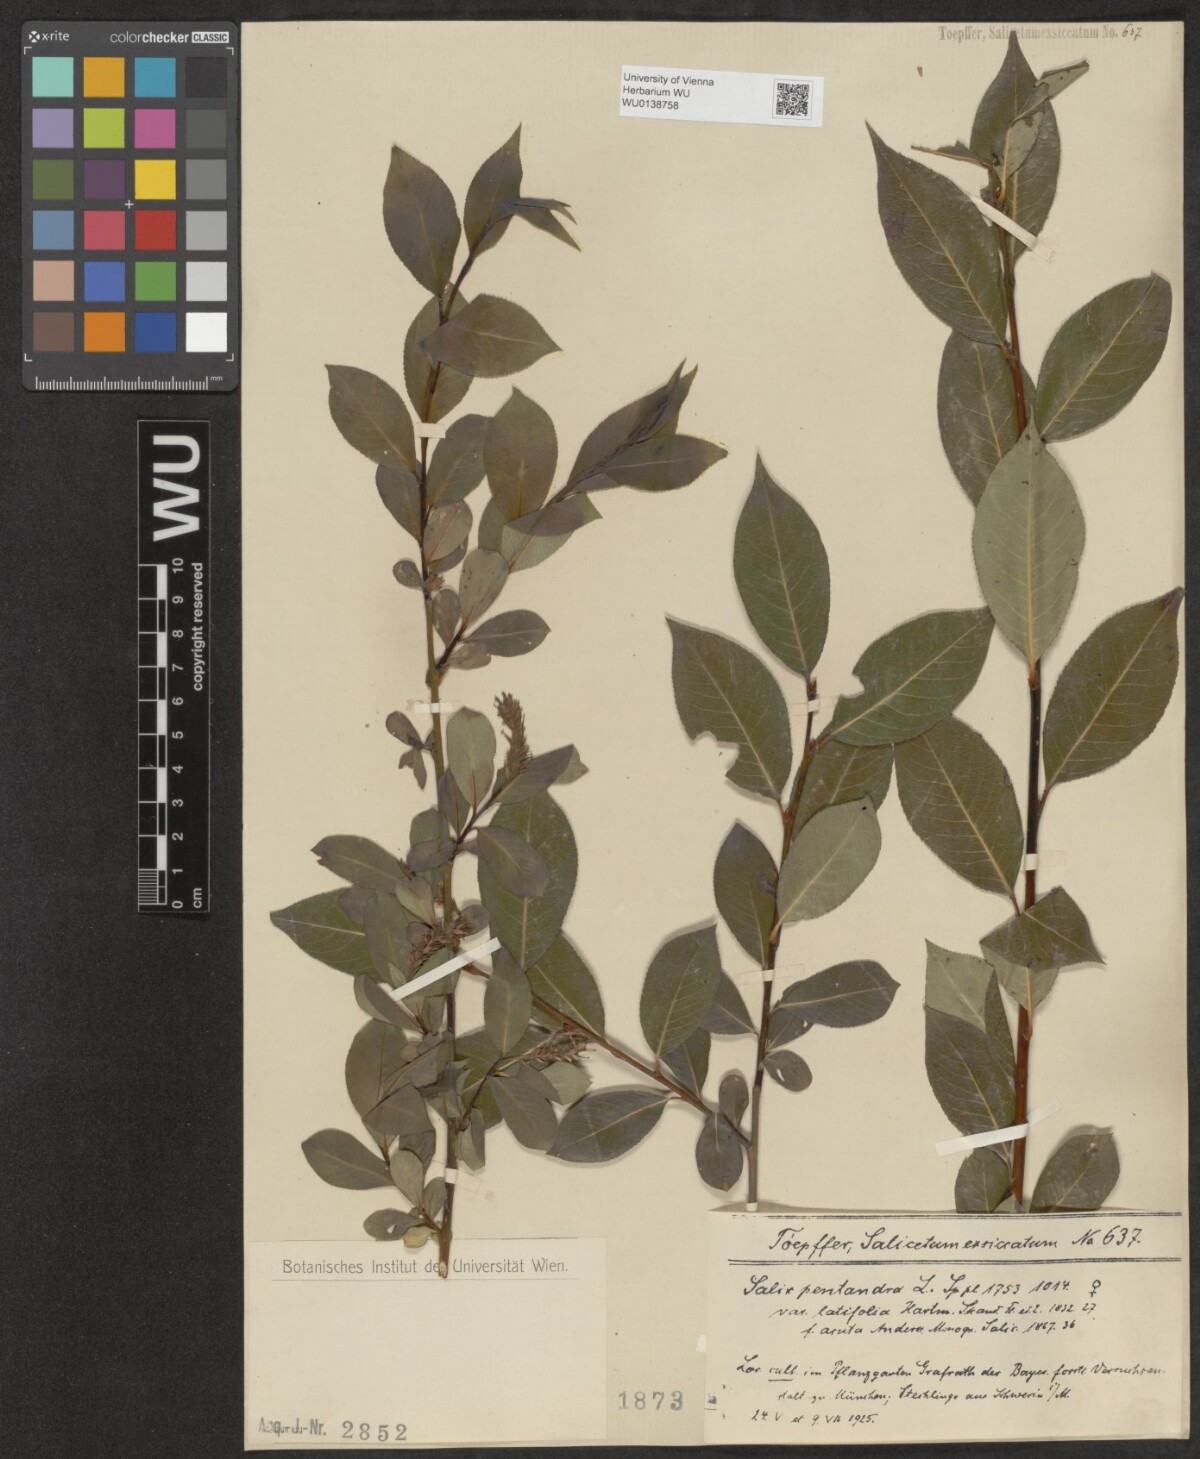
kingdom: Plantae
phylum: Tracheophyta
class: Magnoliopsida
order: Malpighiales
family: Salicaceae
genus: Salix
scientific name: Salix pentandra
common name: Bay willow
